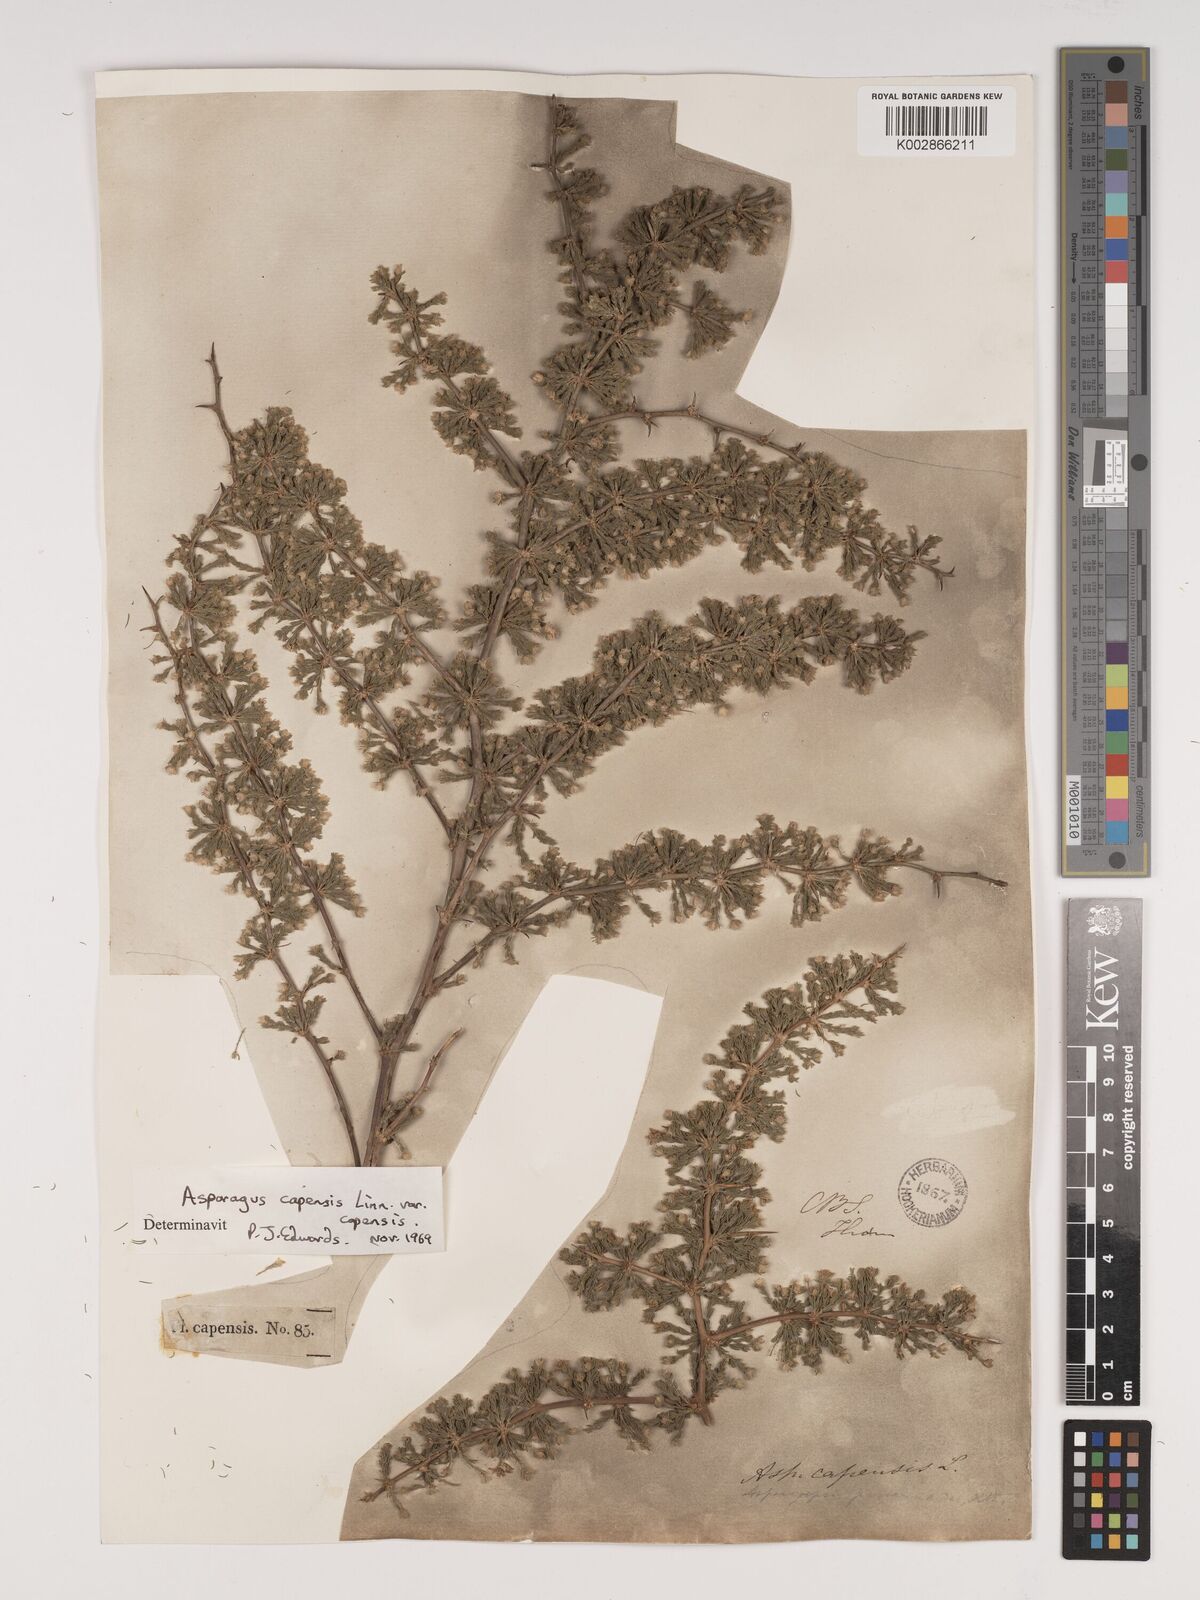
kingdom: Plantae
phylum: Tracheophyta
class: Liliopsida
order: Asparagales
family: Asparagaceae
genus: Asparagus
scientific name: Asparagus capensis
